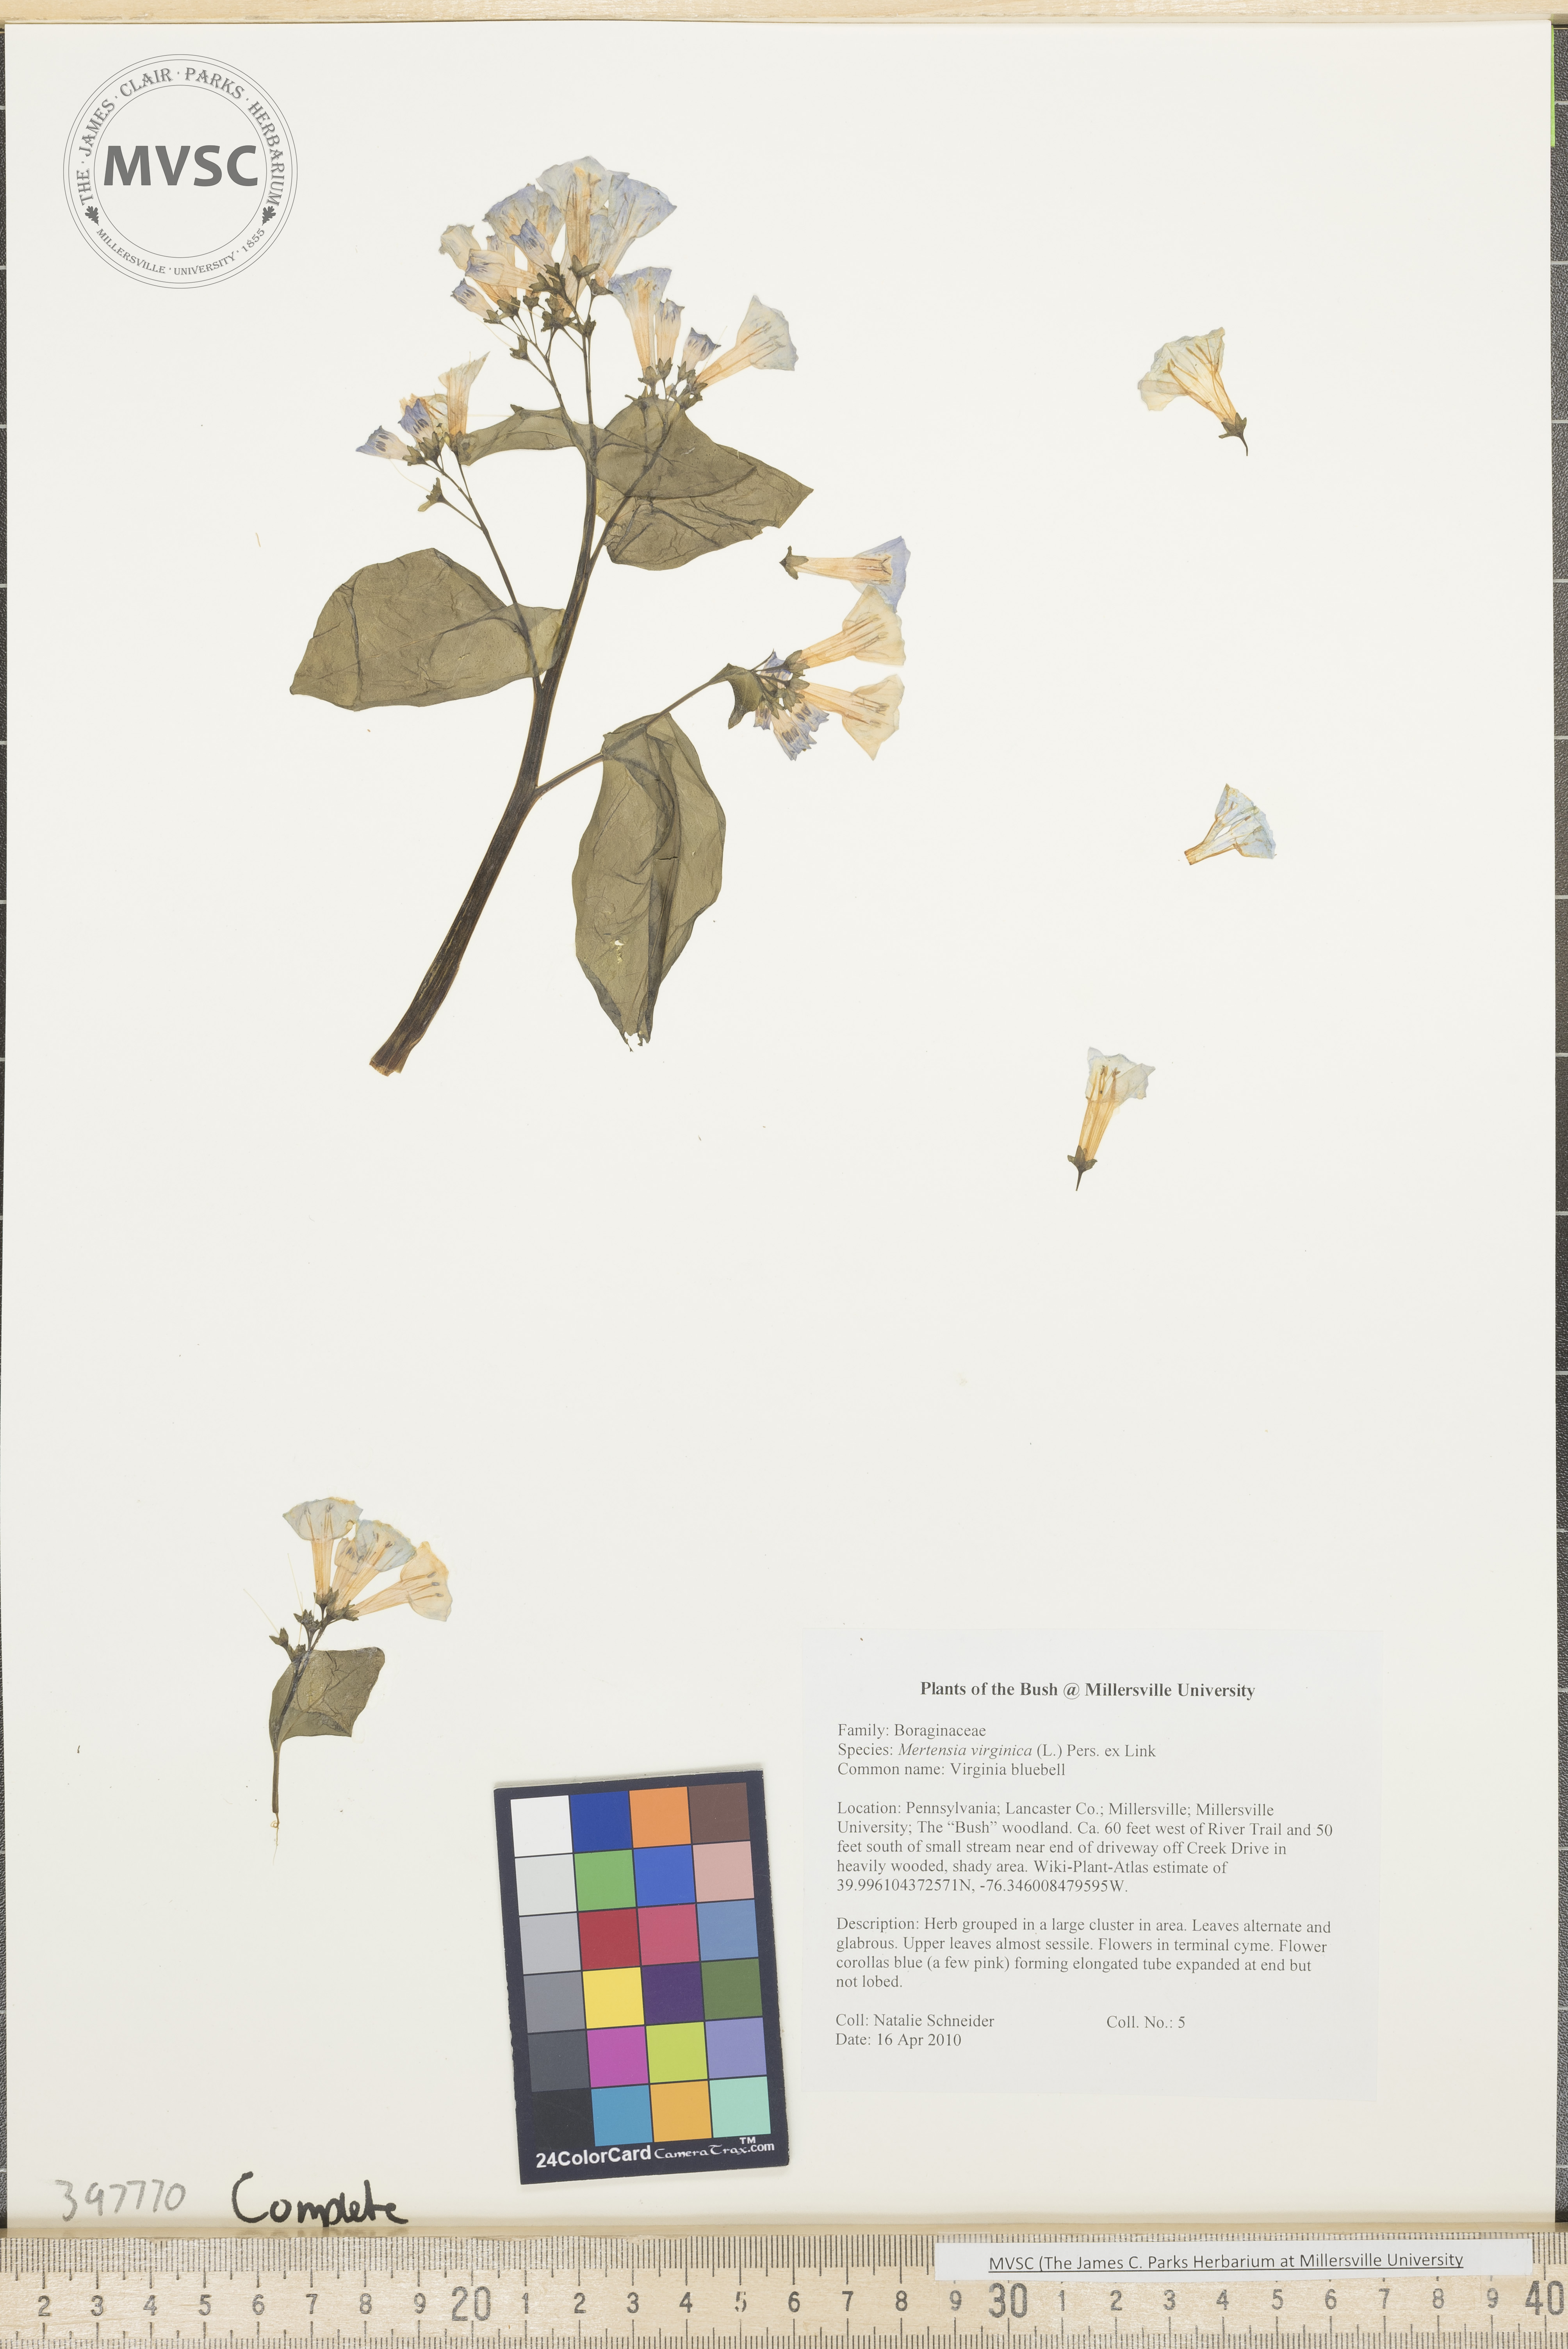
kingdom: Plantae
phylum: Tracheophyta
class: Magnoliopsida
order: Boraginales
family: Boraginaceae
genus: Mertensia
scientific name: Mertensia virginica
